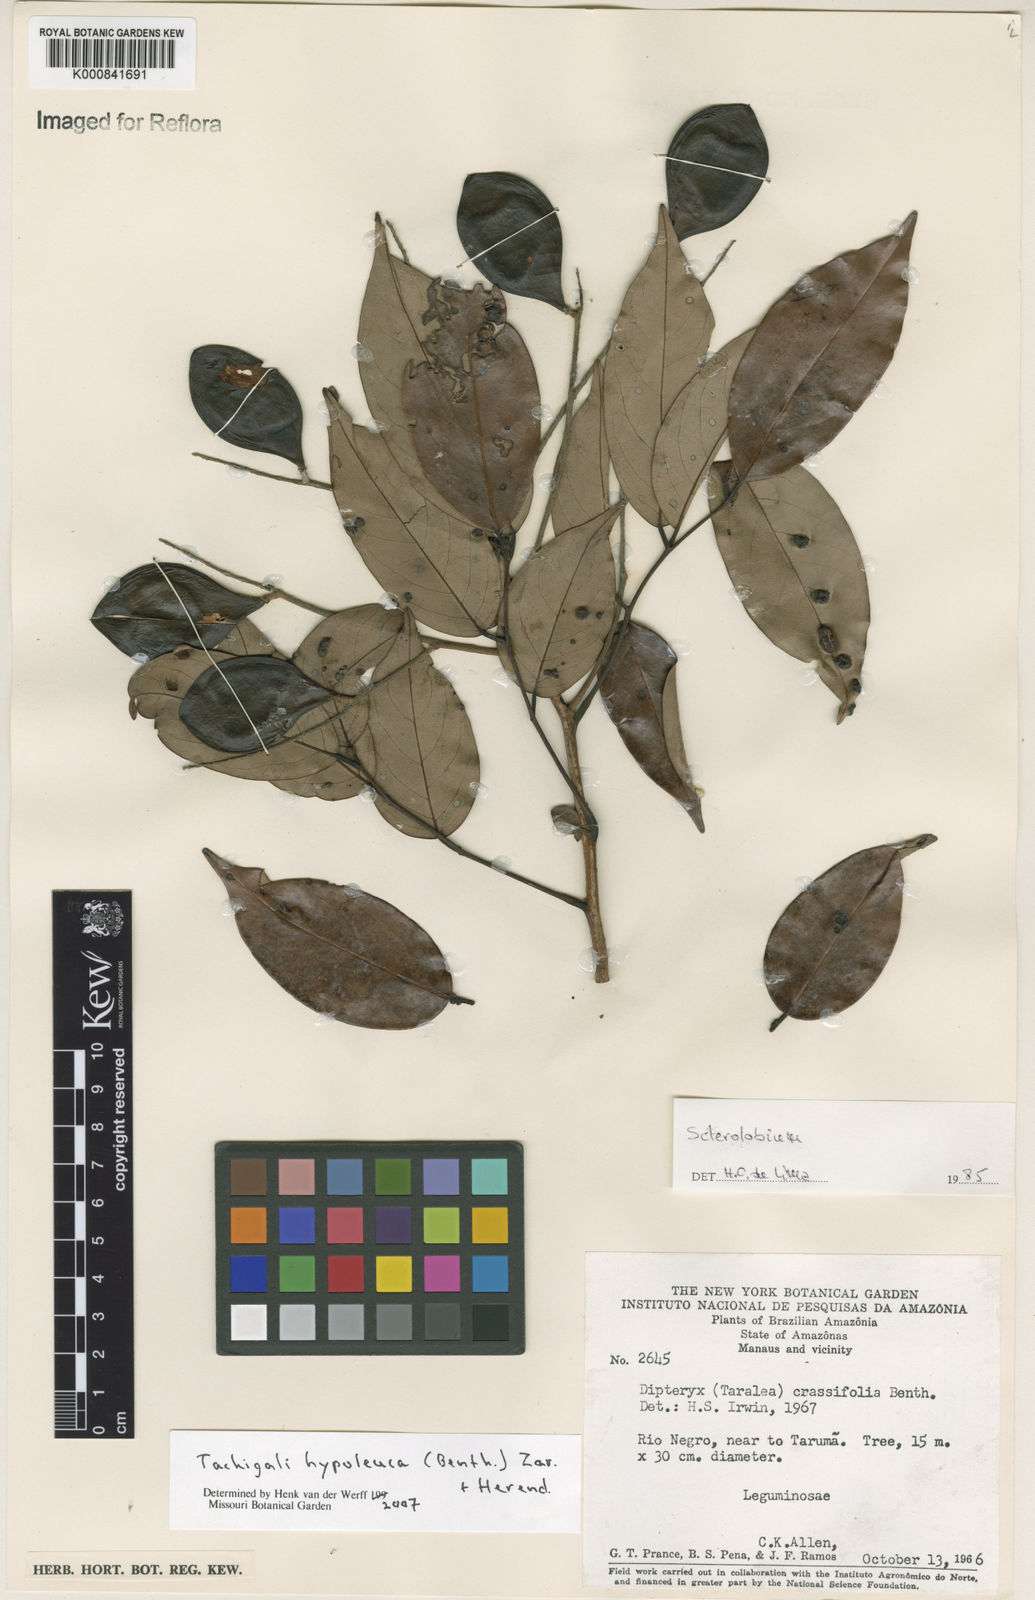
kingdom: Plantae
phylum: Tracheophyta
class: Magnoliopsida
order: Fabales
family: Fabaceae
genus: Tachigali
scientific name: Tachigali hypoleuca
